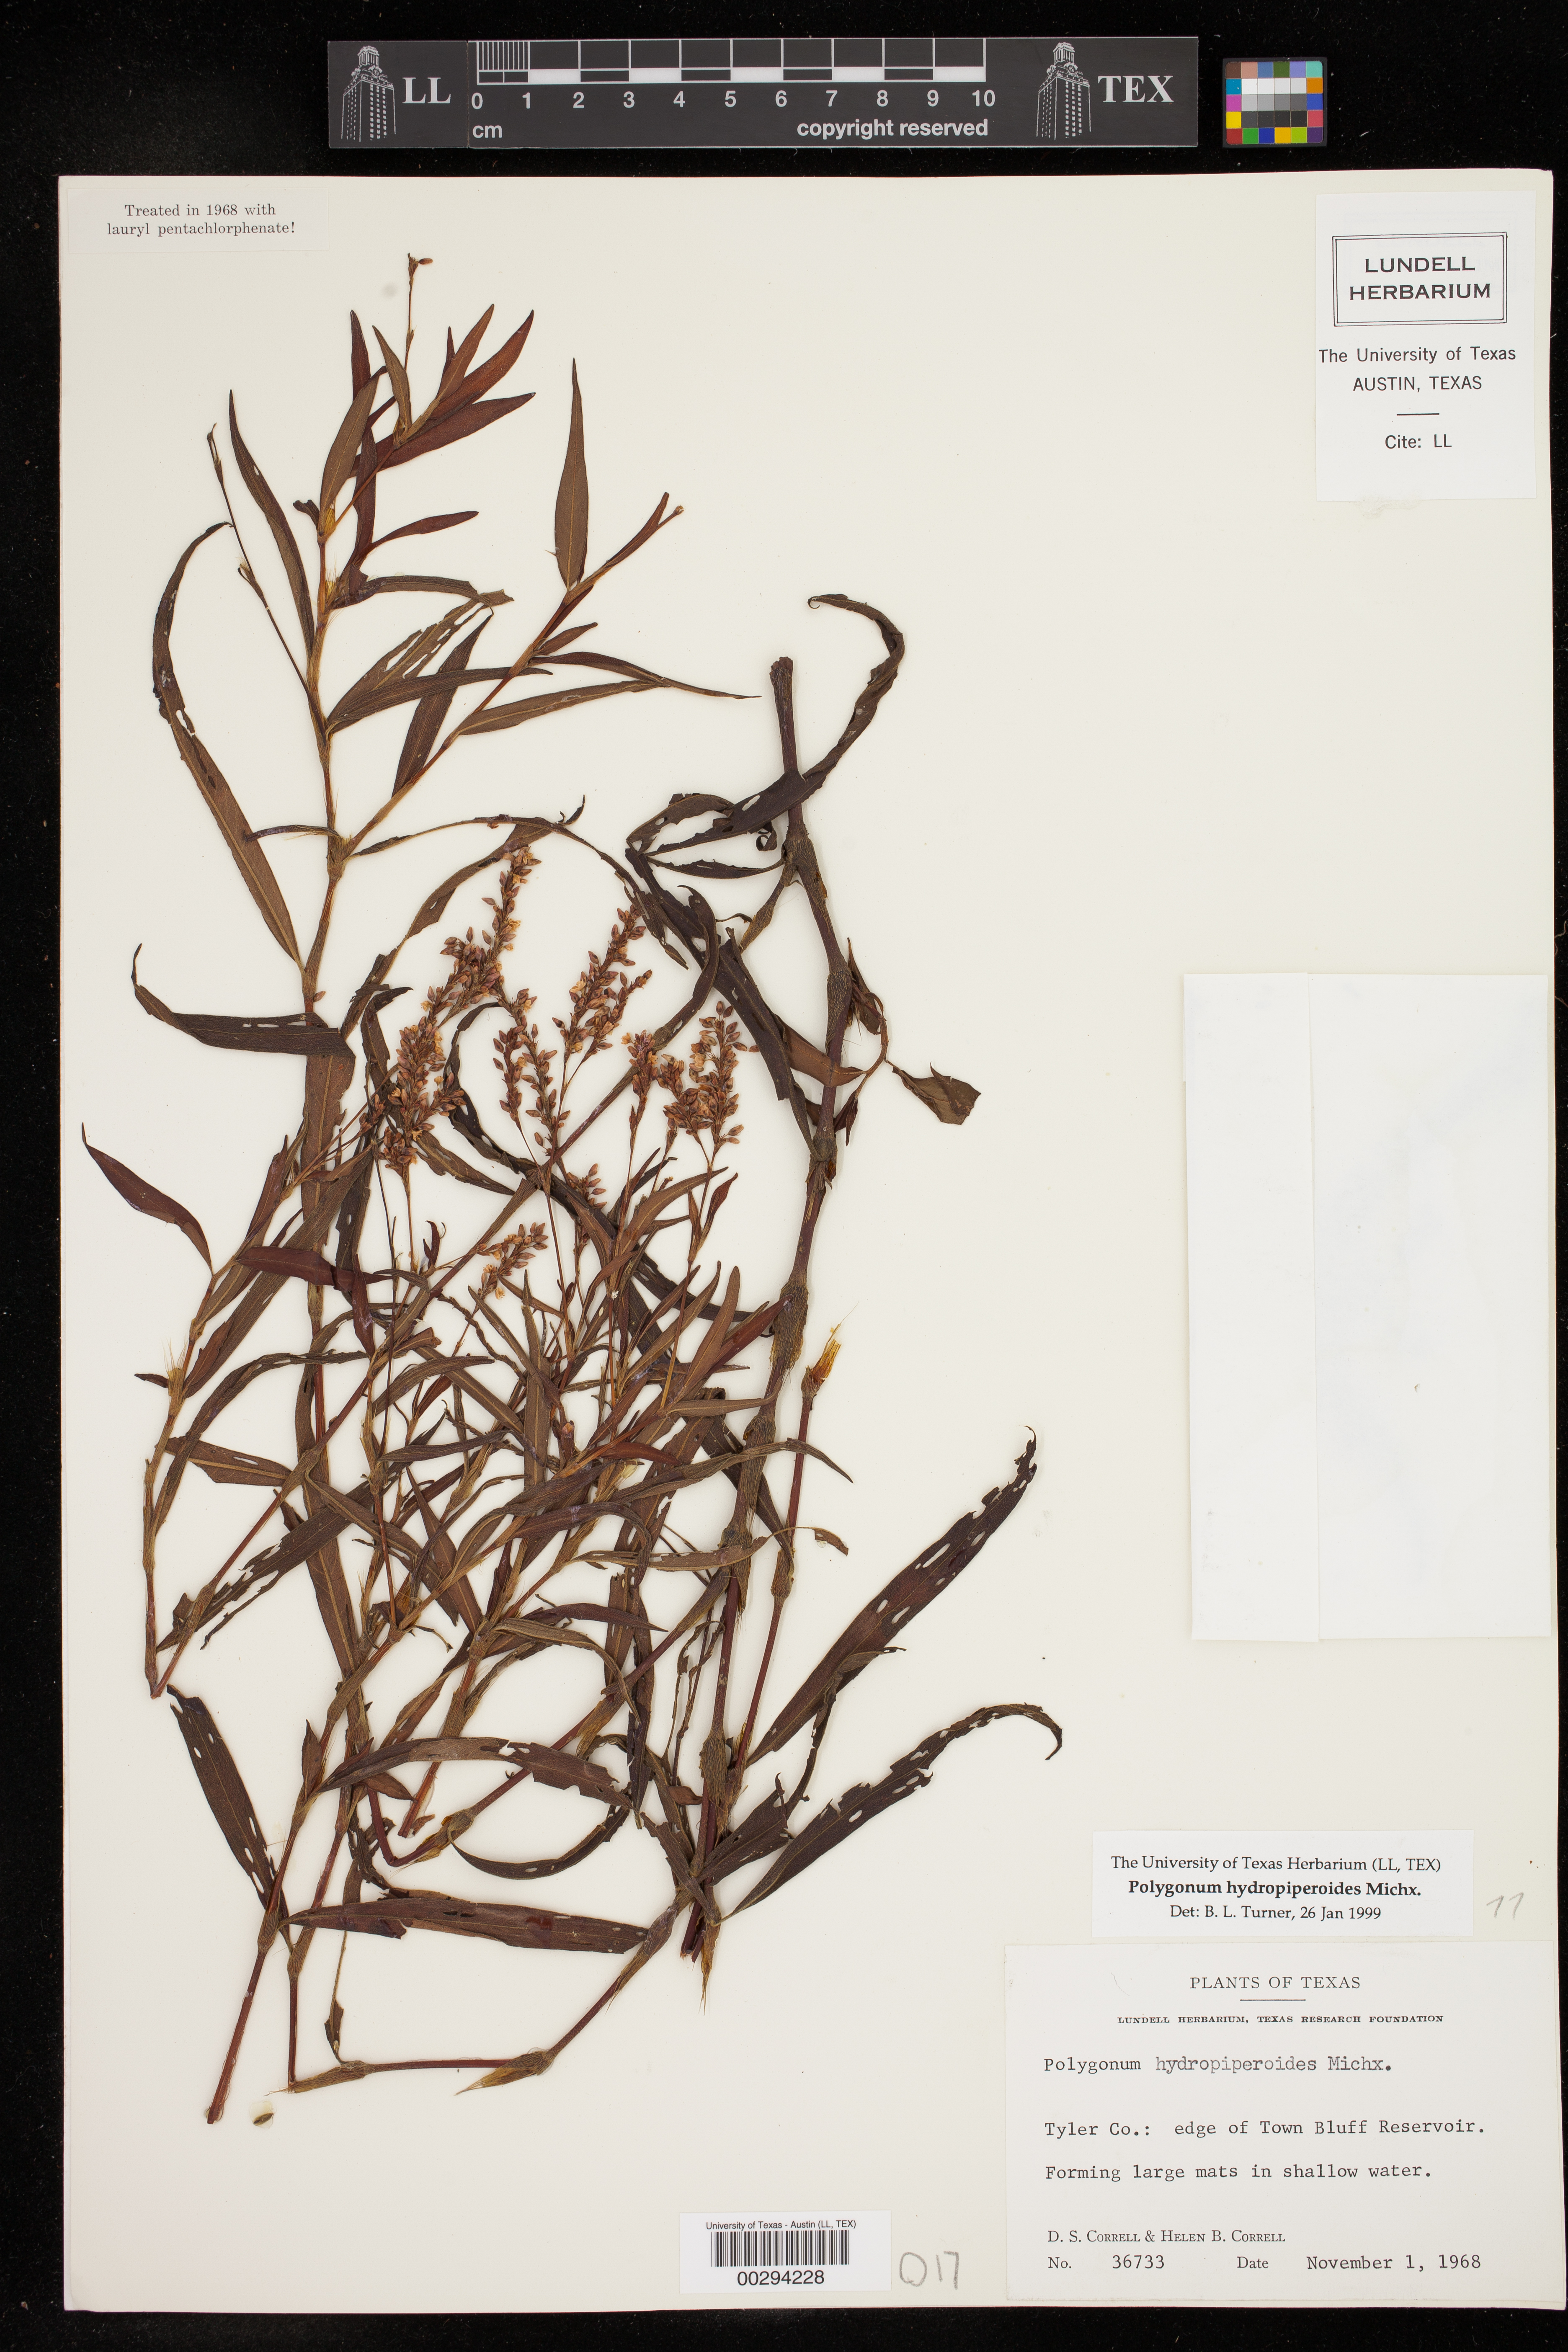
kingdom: Plantae
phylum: Tracheophyta
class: Magnoliopsida
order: Caryophyllales
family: Polygonaceae
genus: Persicaria
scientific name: Persicaria hydropiperoides
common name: Swamp smartweed
